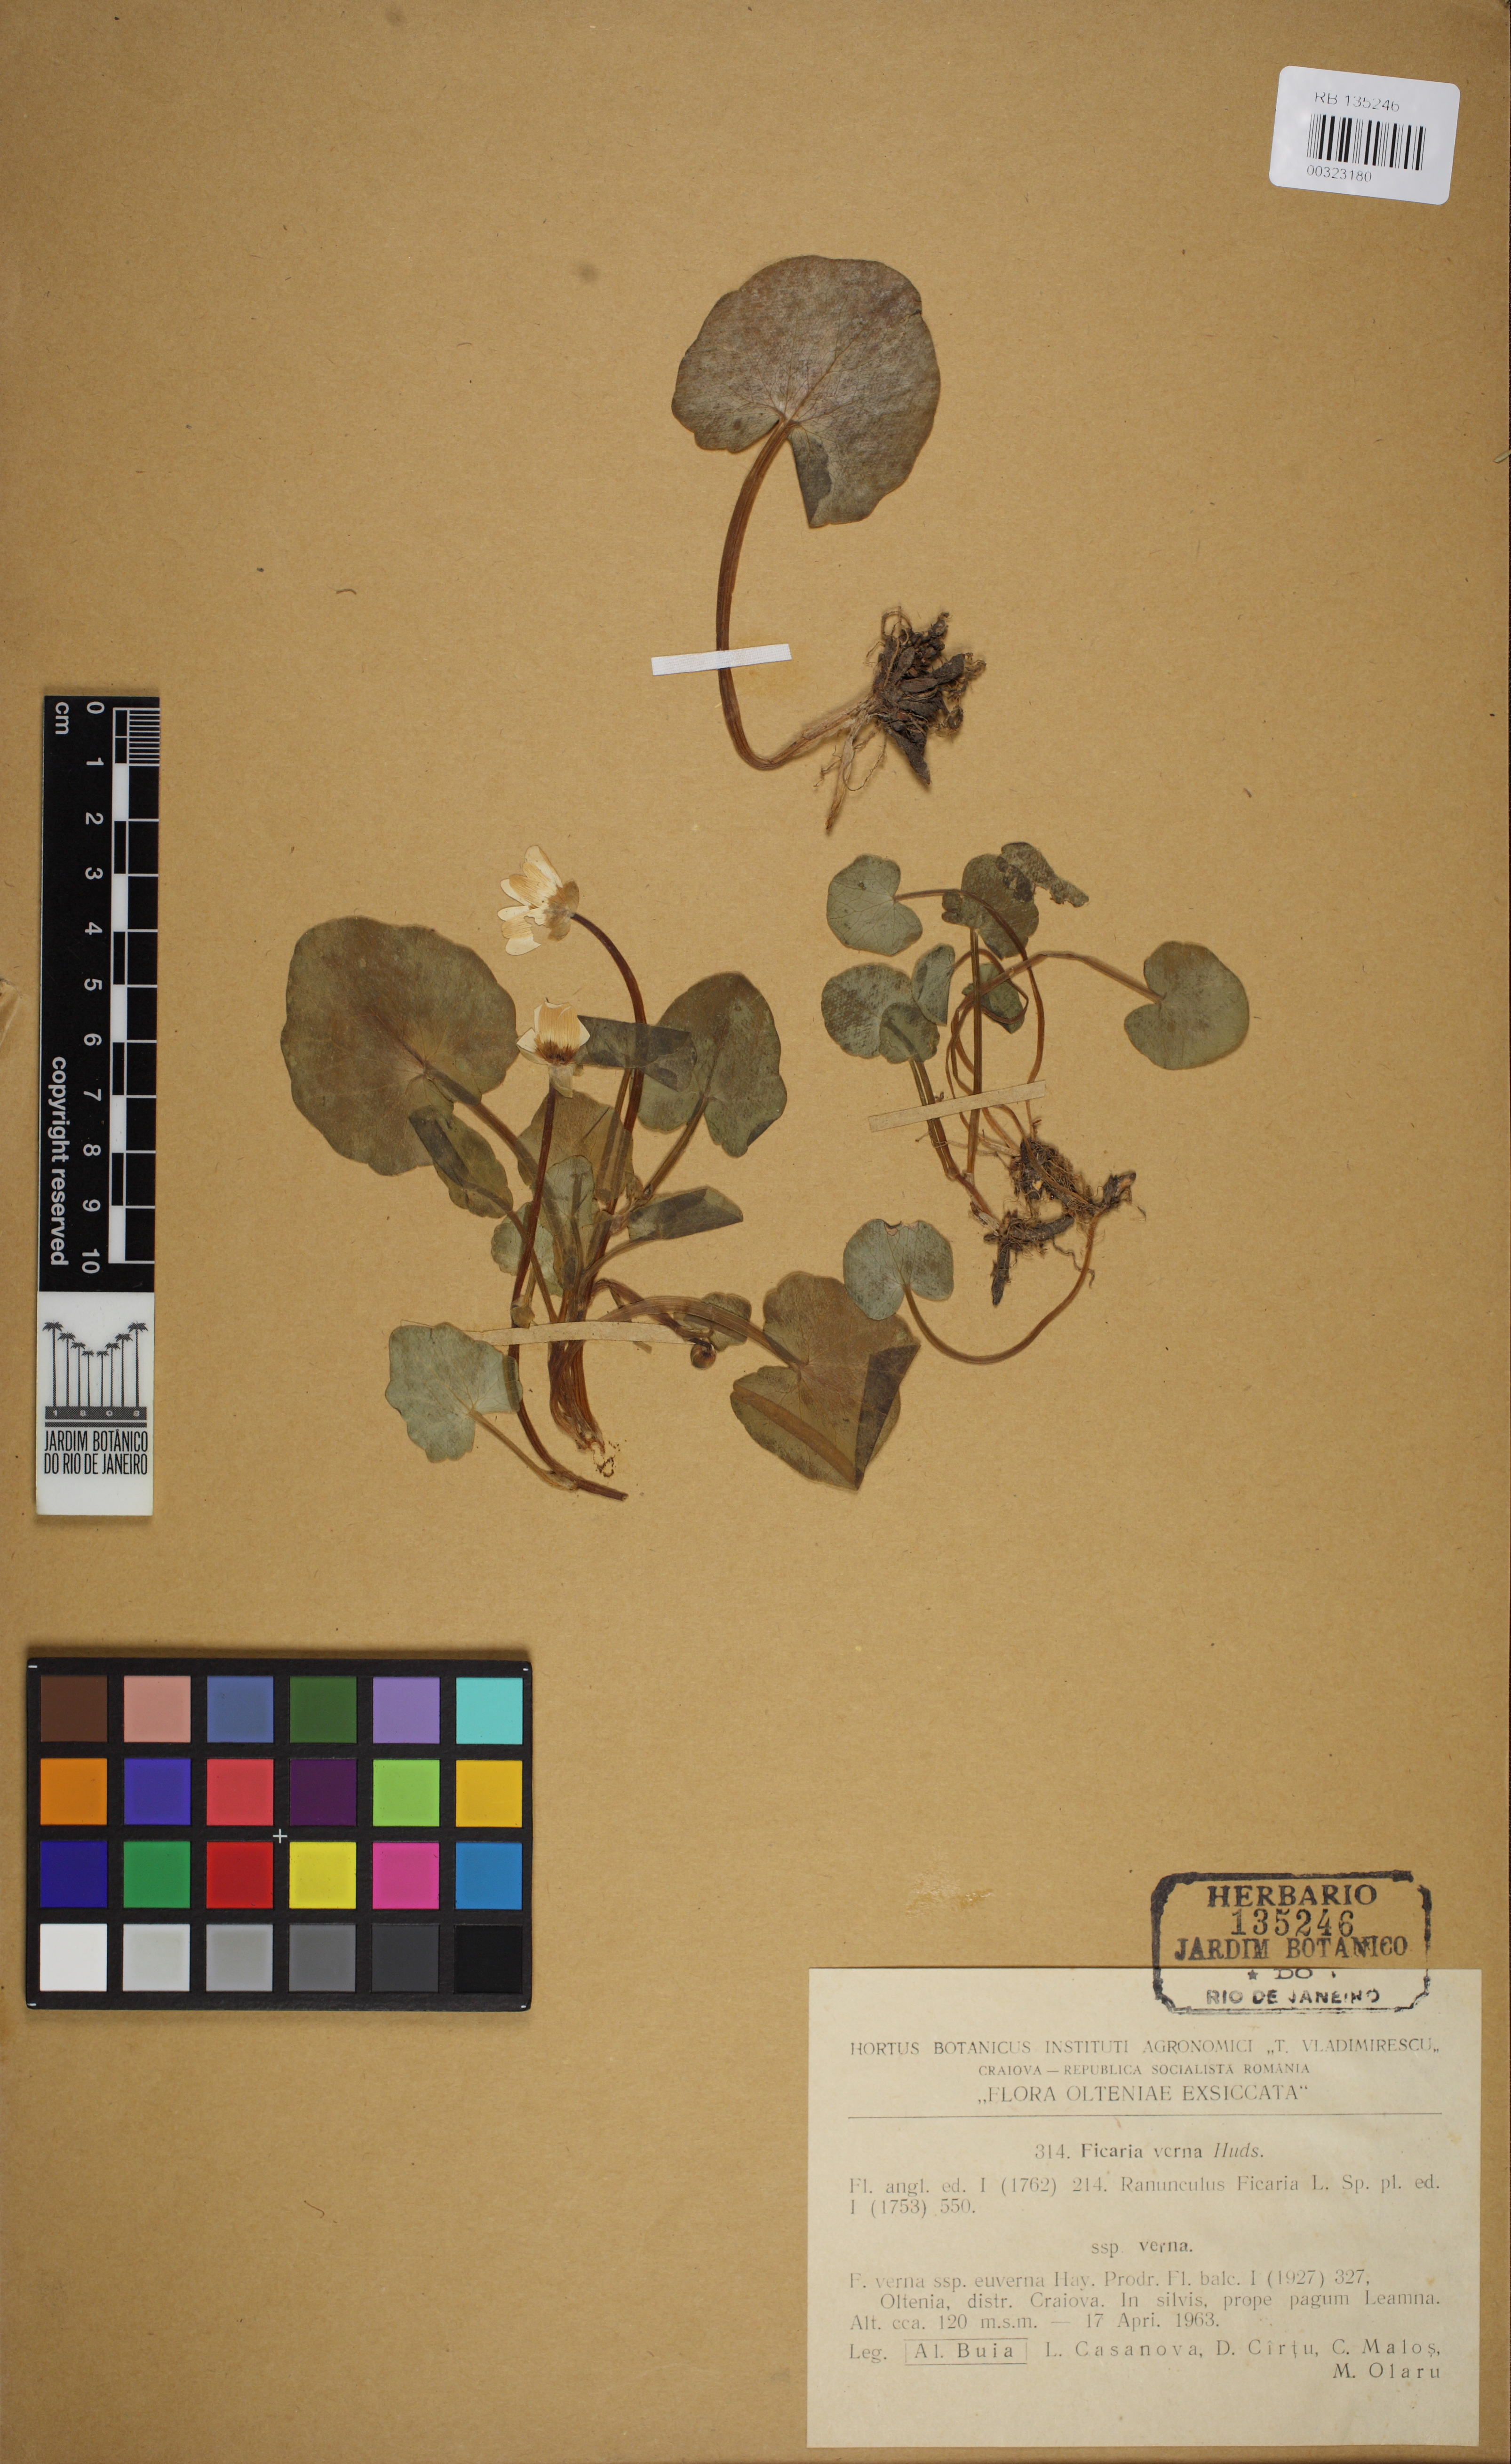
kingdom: Plantae
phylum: Tracheophyta
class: Magnoliopsida
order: Ranunculales
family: Ranunculaceae
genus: Ficaria
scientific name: Ficaria verna
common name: Lesser celandine
